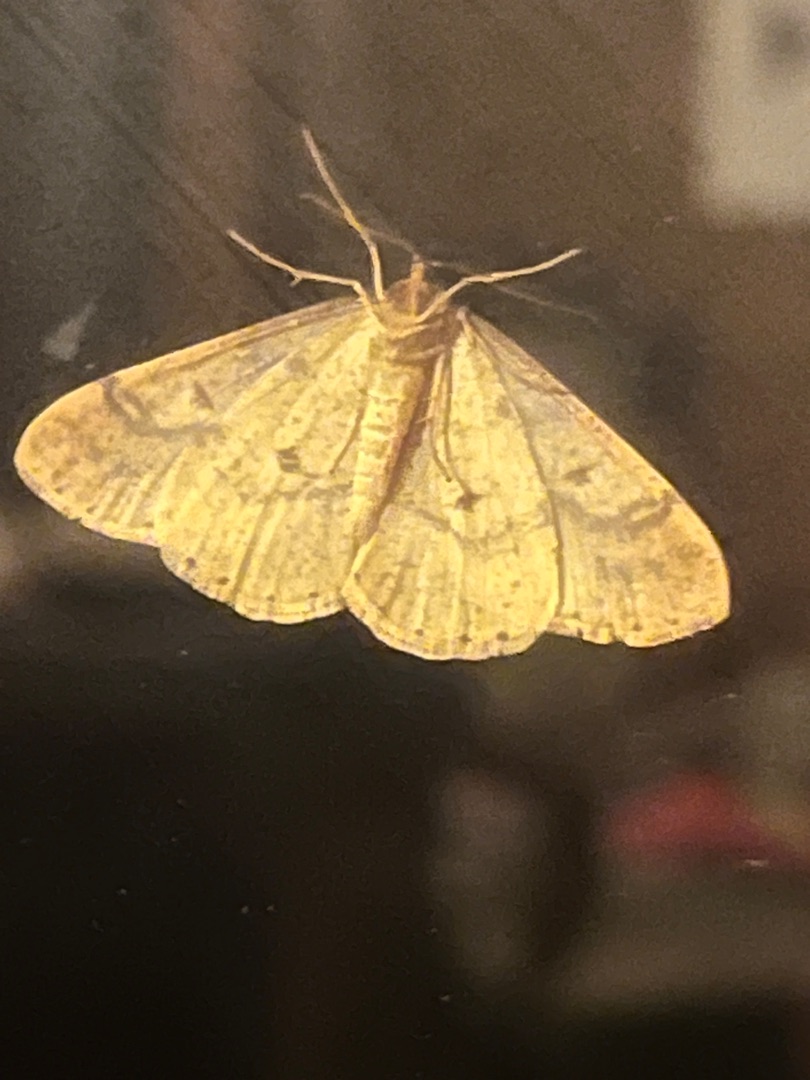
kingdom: Animalia
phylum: Arthropoda
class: Insecta
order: Lepidoptera
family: Geometridae
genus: Agriopis
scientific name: Agriopis aurantiaria
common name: Guldgul frostmåler
